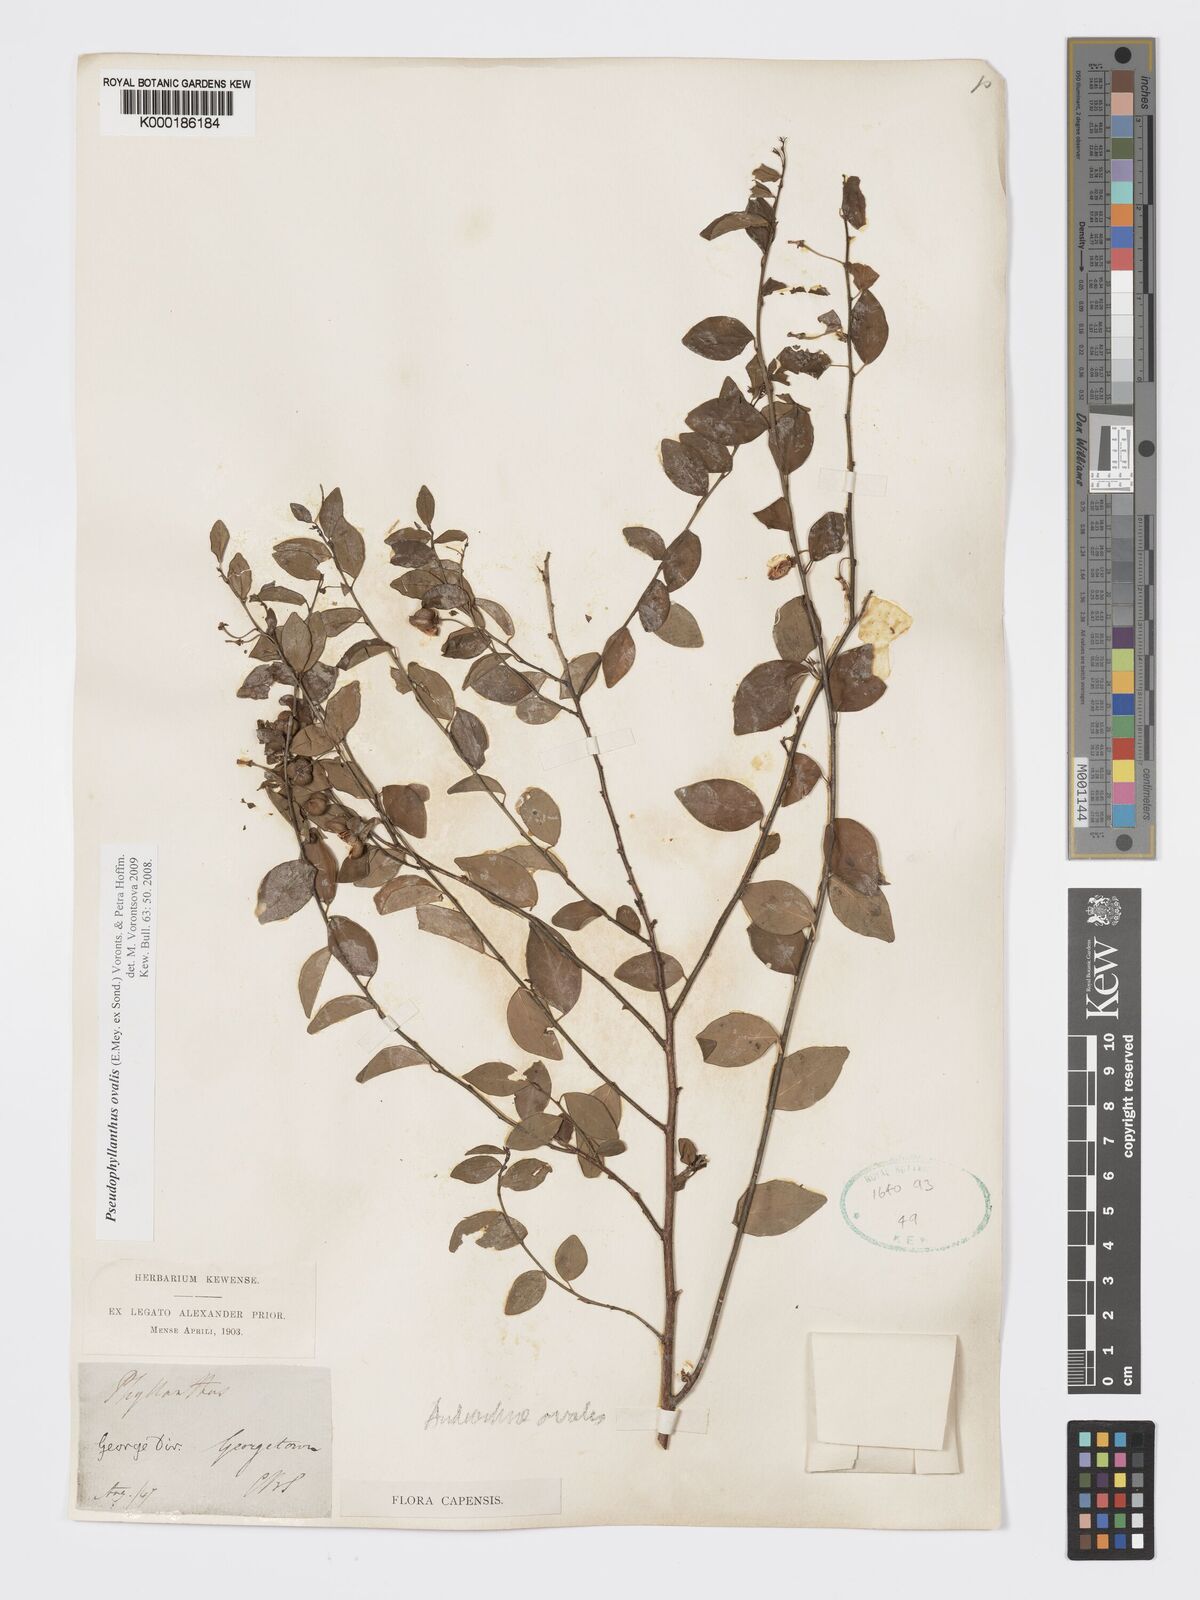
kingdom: Plantae
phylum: Tracheophyta
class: Magnoliopsida
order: Malpighiales
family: Phyllanthaceae
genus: Pseudophyllanthus
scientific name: Pseudophyllanthus ovalis
